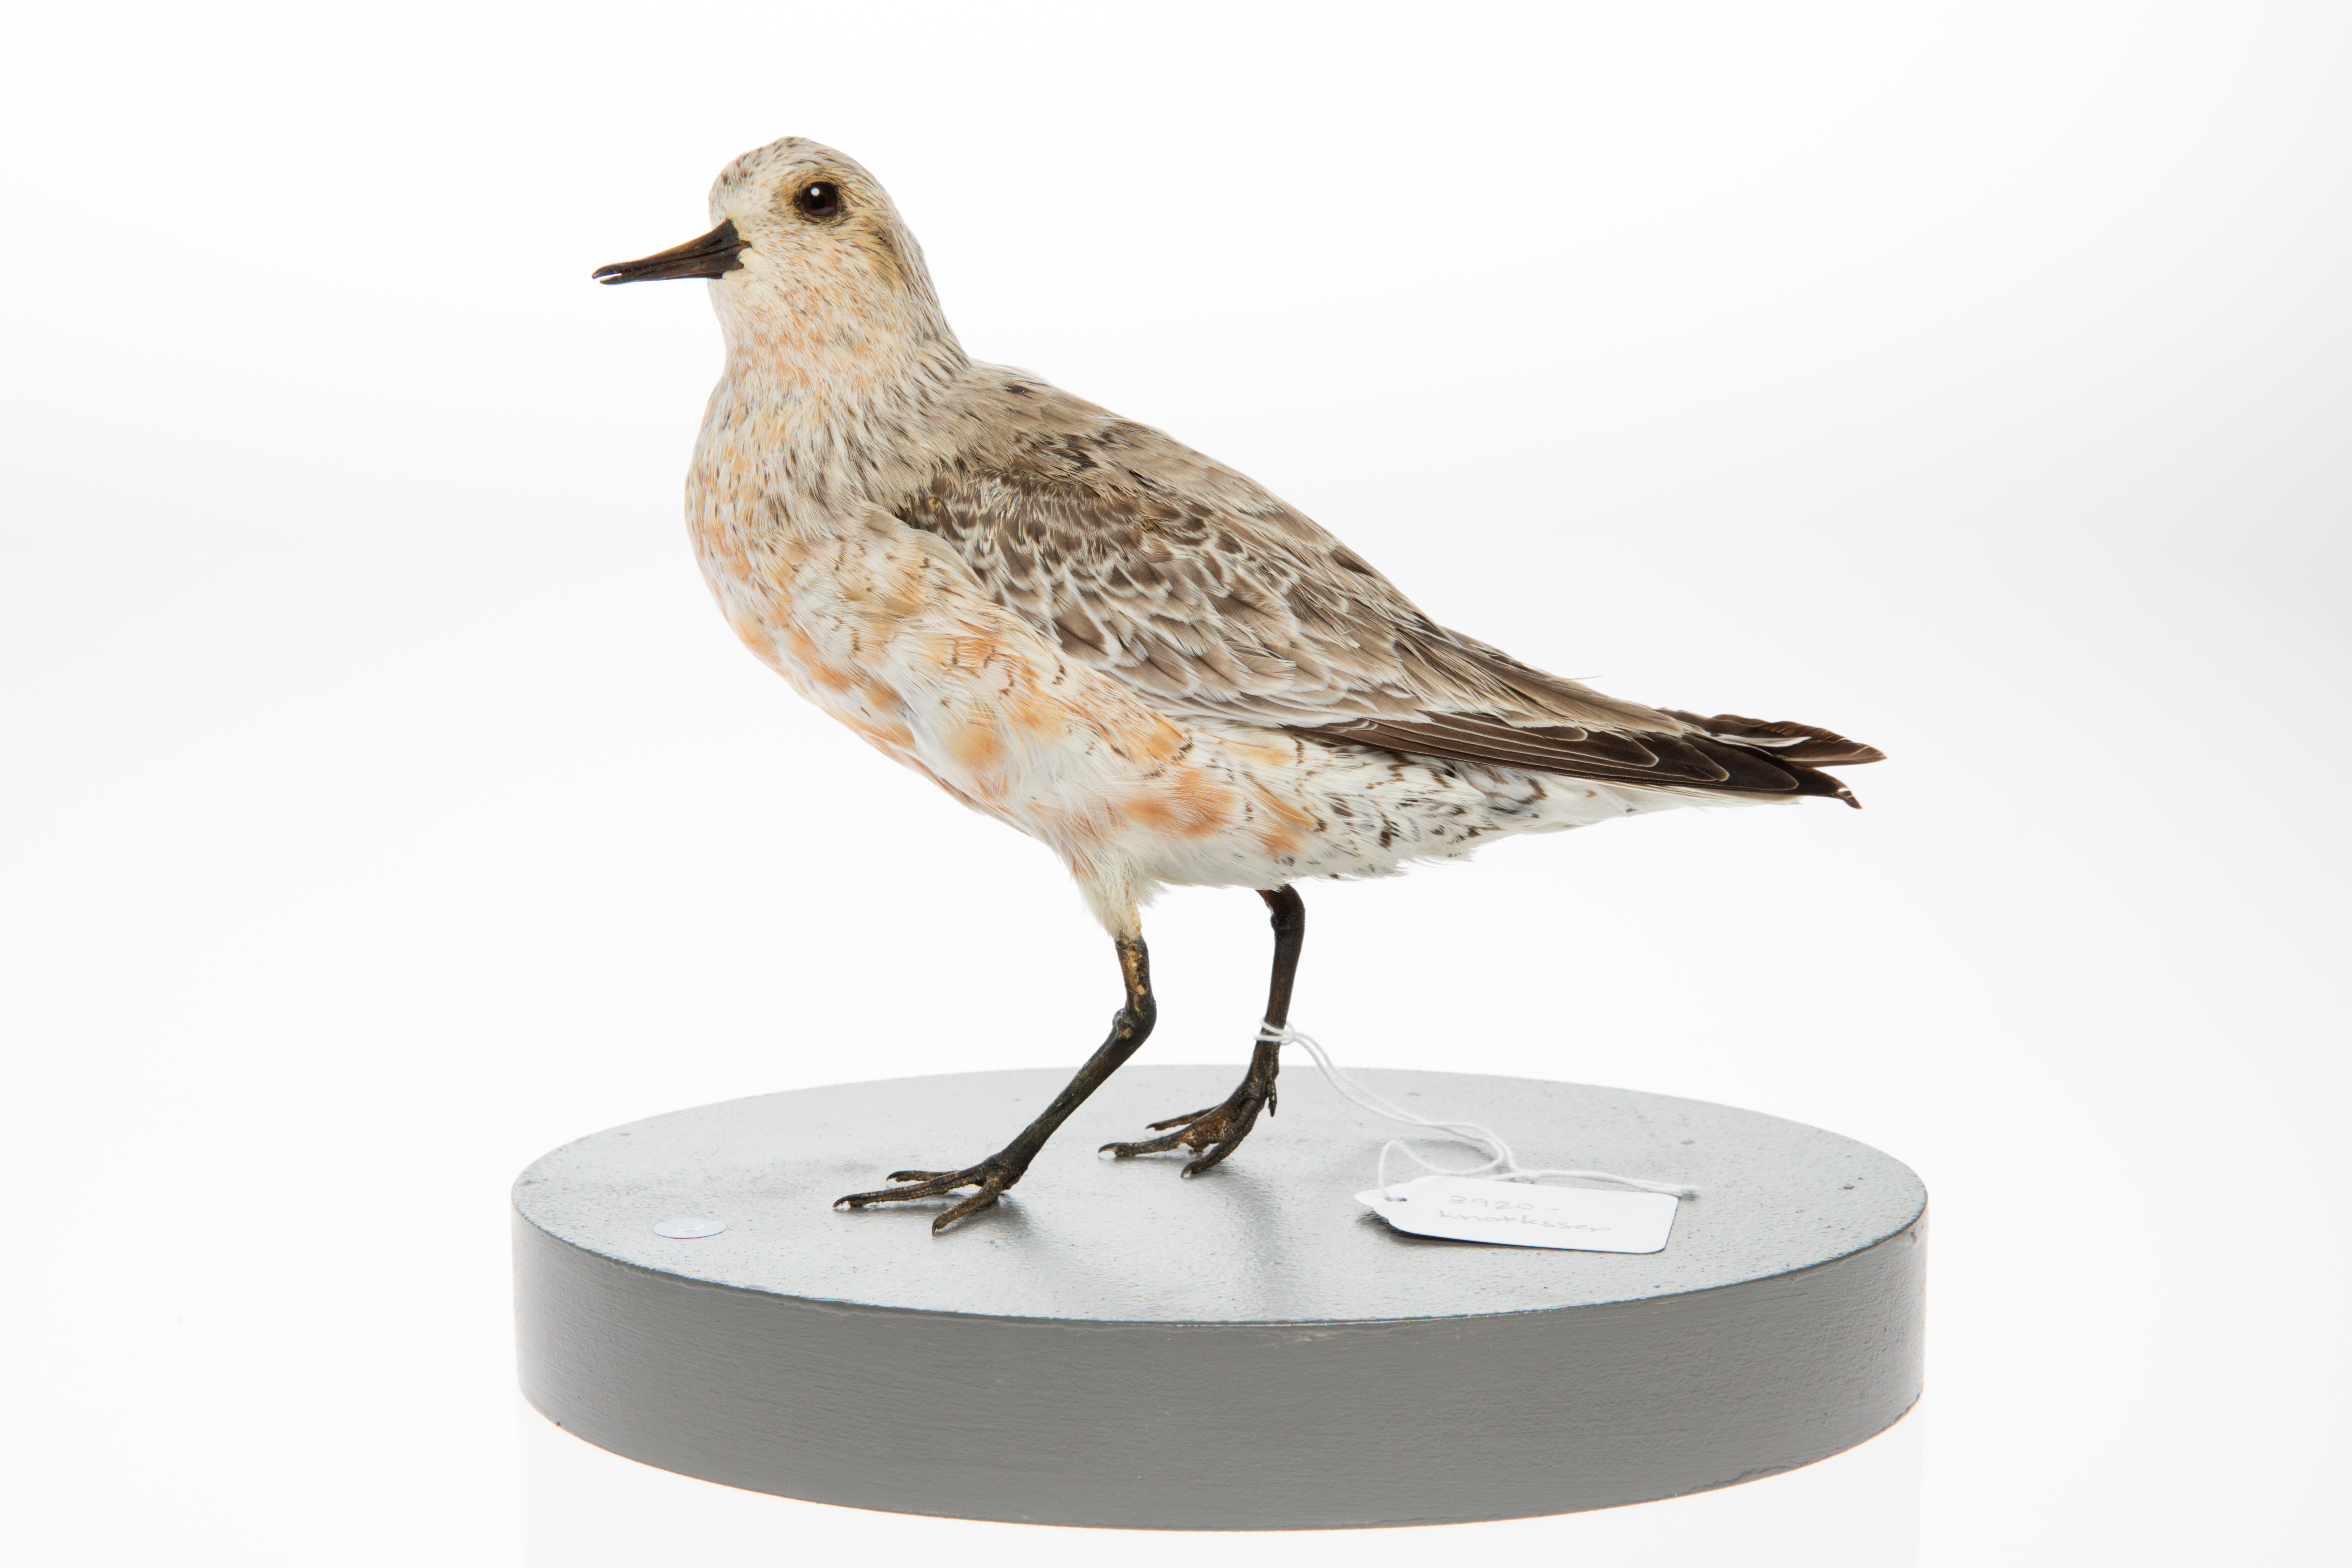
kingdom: Animalia
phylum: Chordata
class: Aves
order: Charadriiformes
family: Scolopacidae
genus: Calidris
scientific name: Calidris canutus
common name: Red knot
